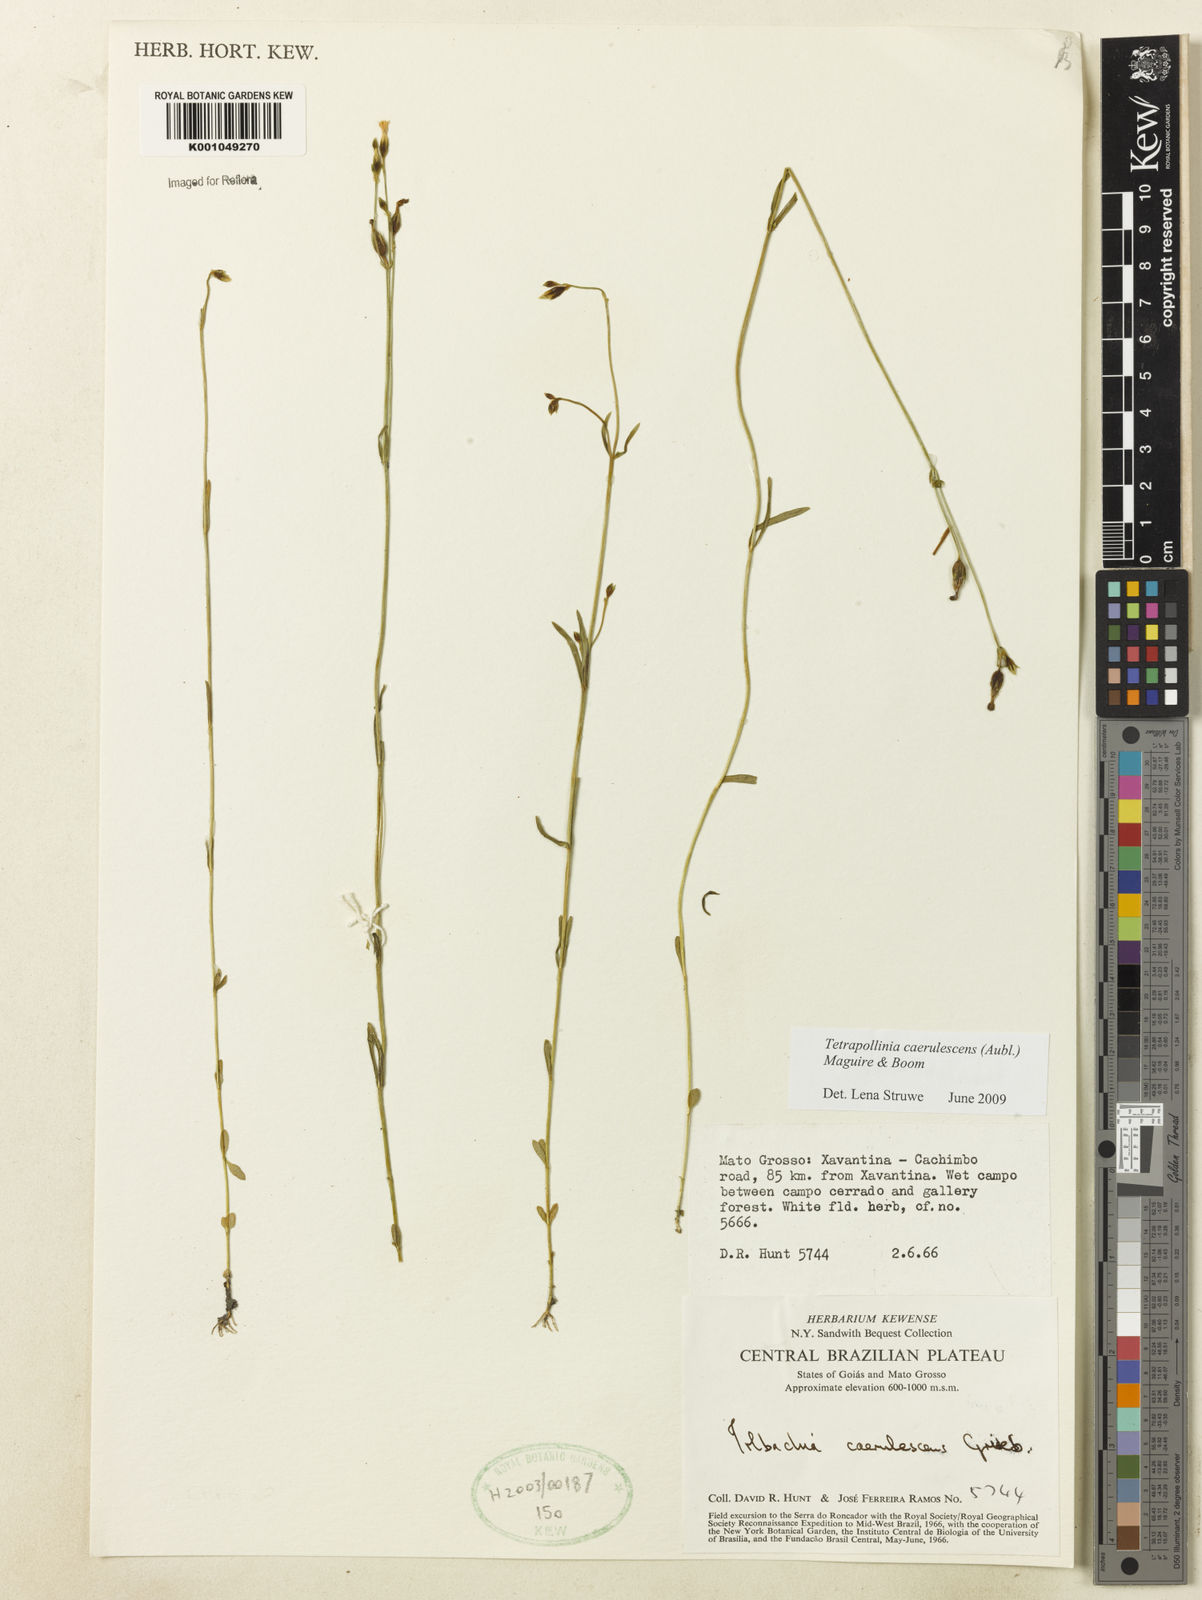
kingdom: Plantae
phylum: Tracheophyta
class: Magnoliopsida
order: Gentianales
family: Gentianaceae
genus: Tetrapollinia
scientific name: Tetrapollinia caerulescens
